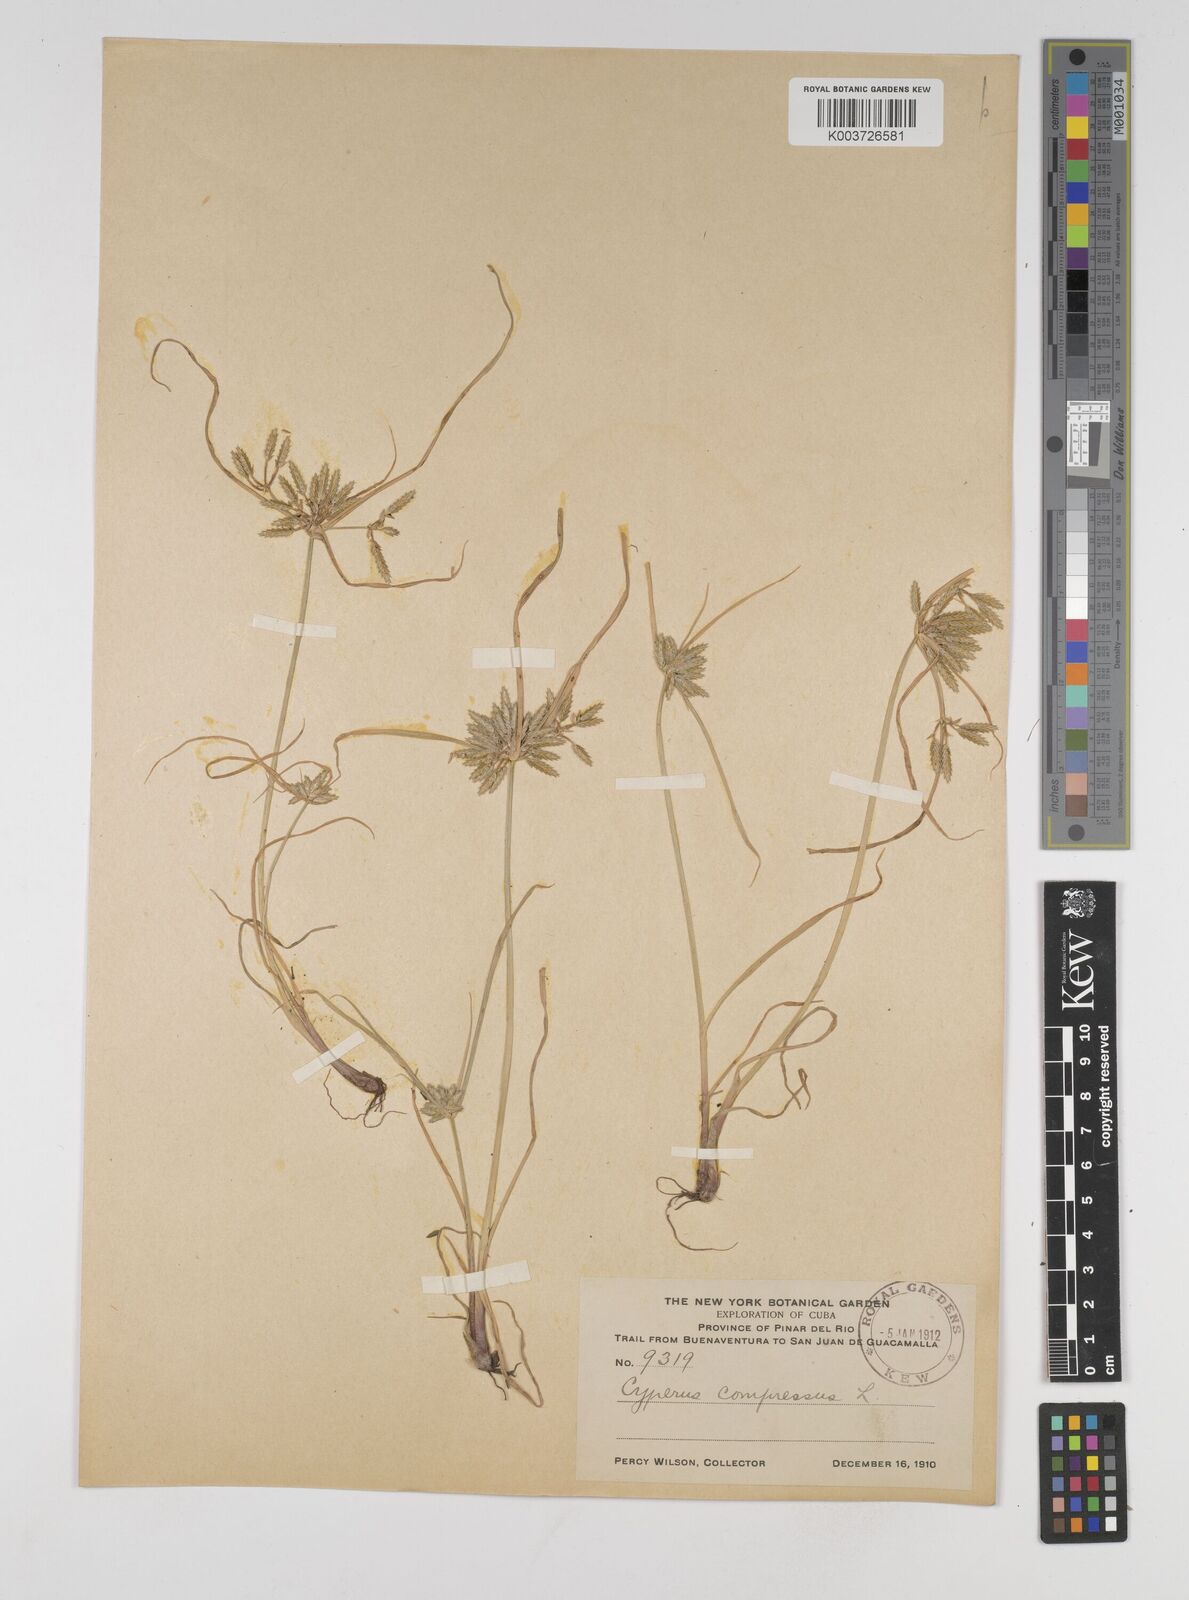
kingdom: Plantae
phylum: Tracheophyta
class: Liliopsida
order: Poales
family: Cyperaceae
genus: Cyperus
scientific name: Cyperus compressus
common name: Poorland flatsedge
